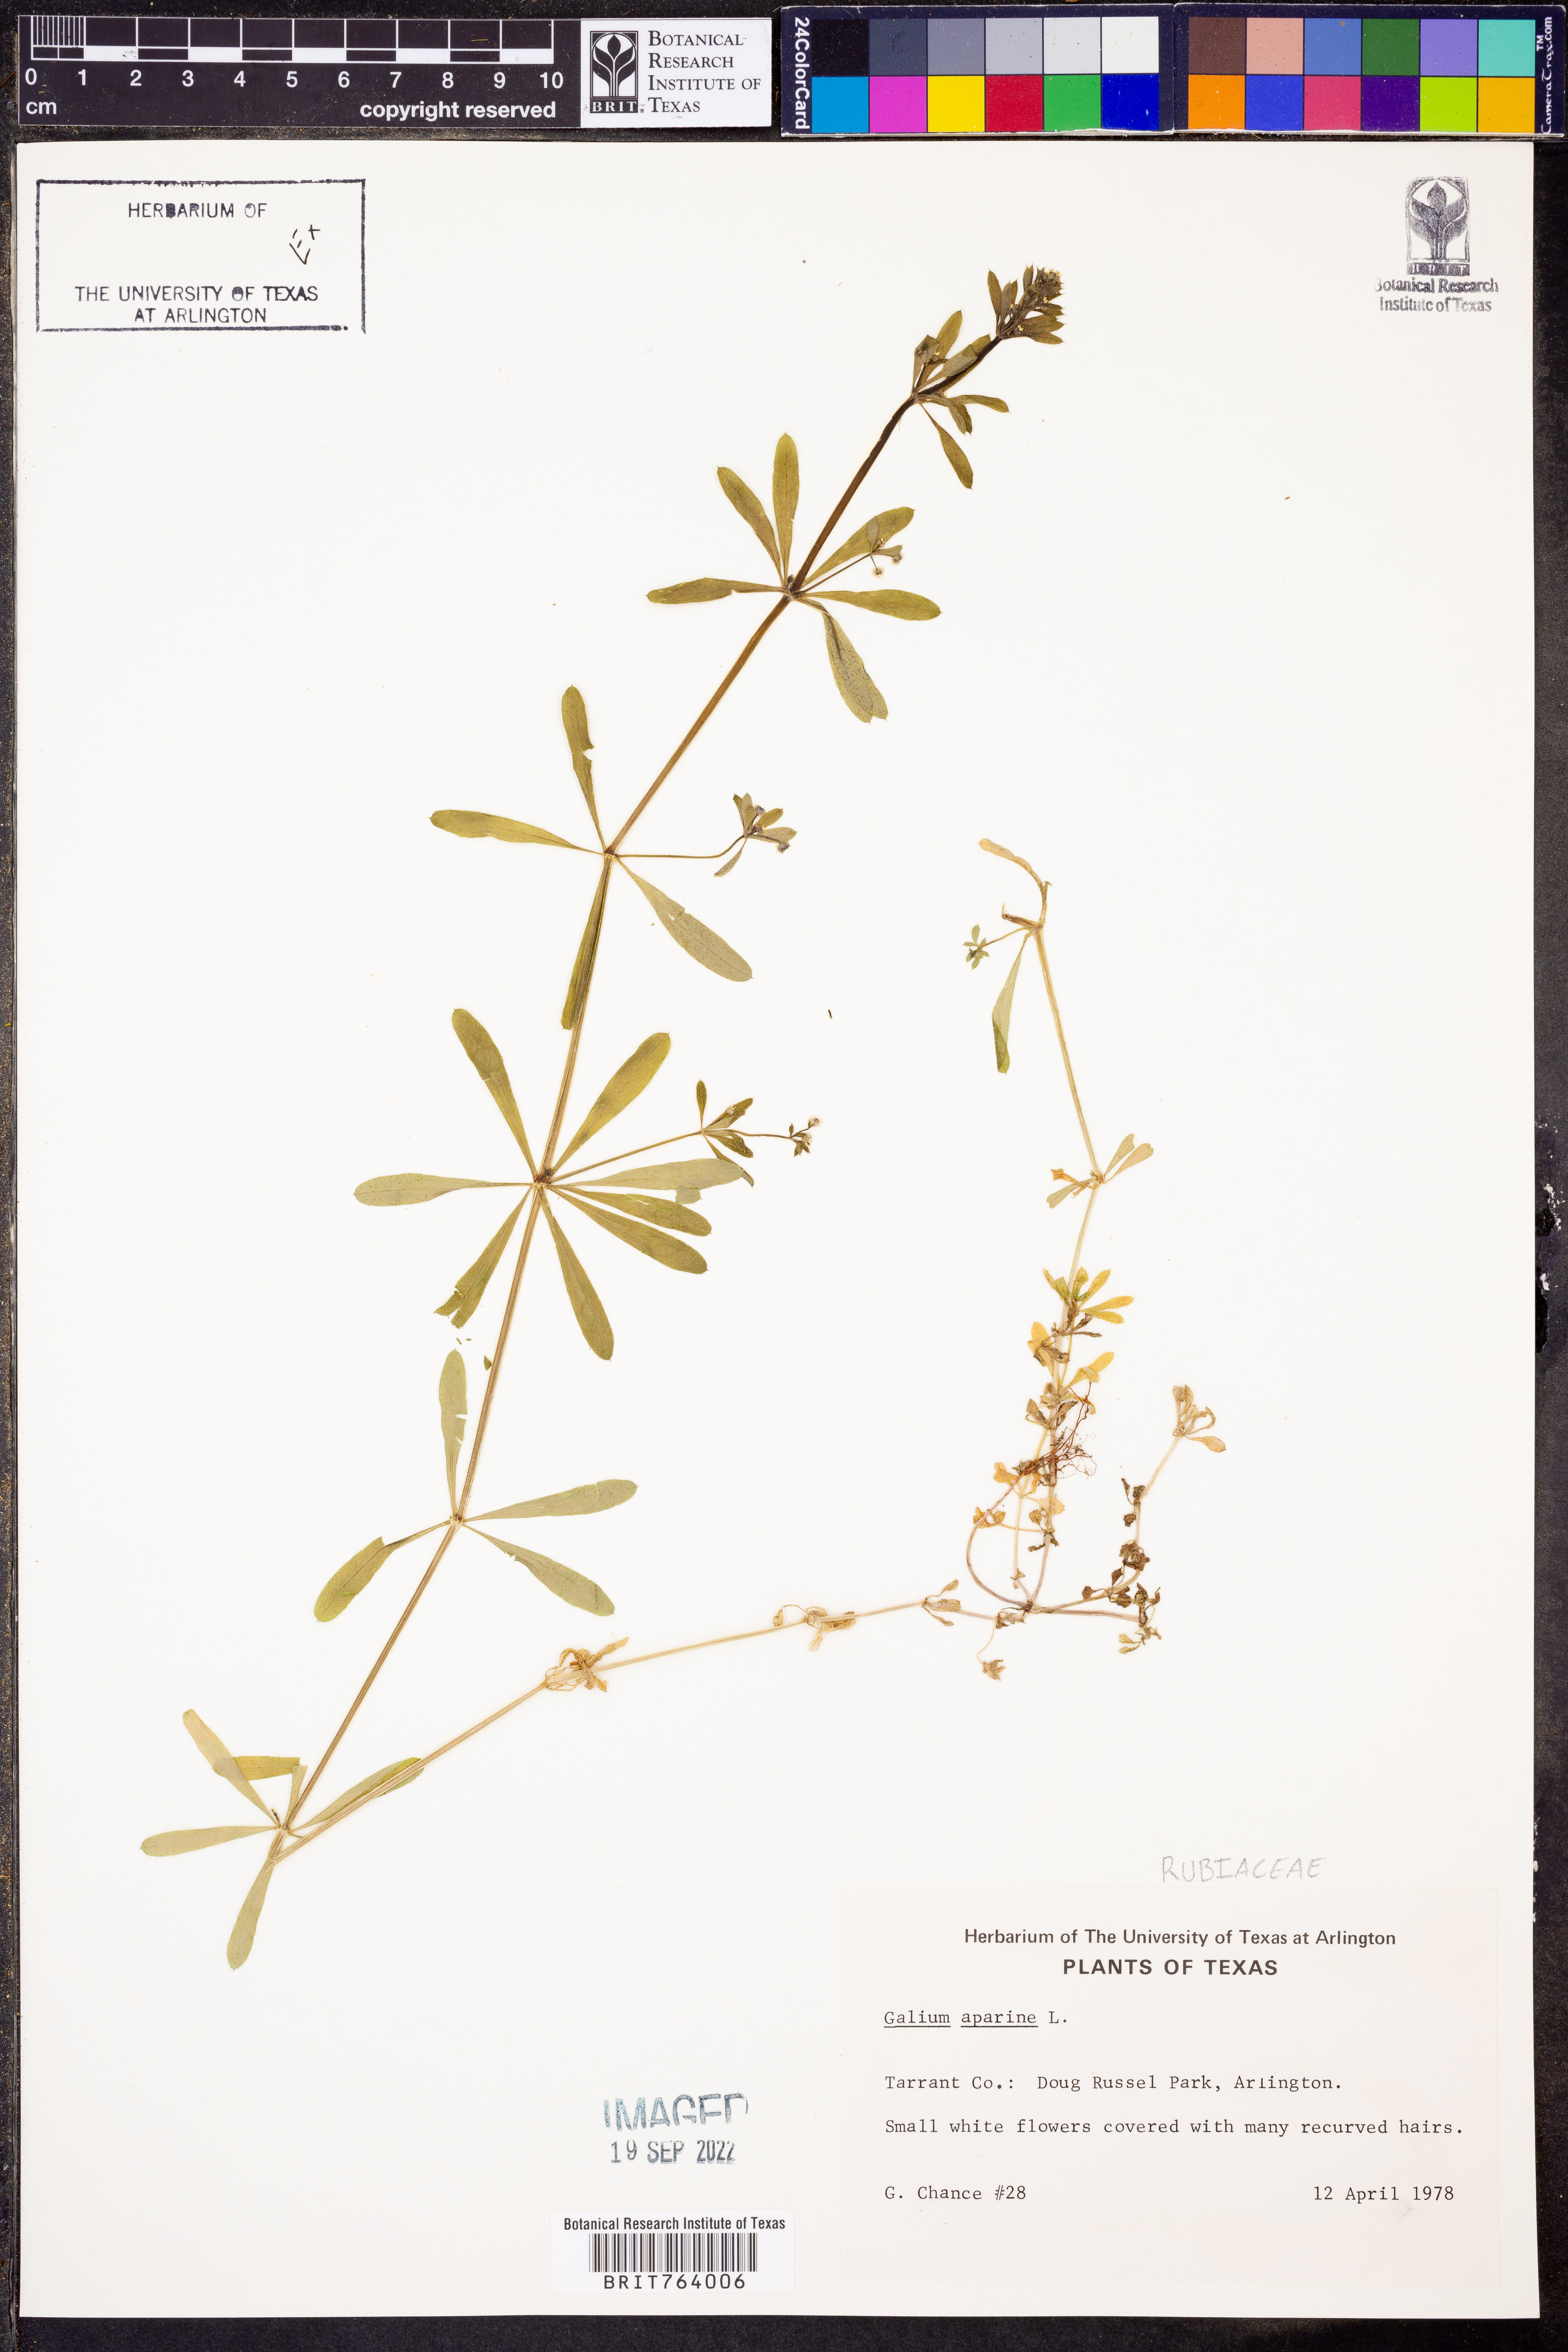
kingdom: Plantae
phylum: Tracheophyta
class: Magnoliopsida
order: Gentianales
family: Rubiaceae
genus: Galium
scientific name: Galium aparine
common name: Cleavers
